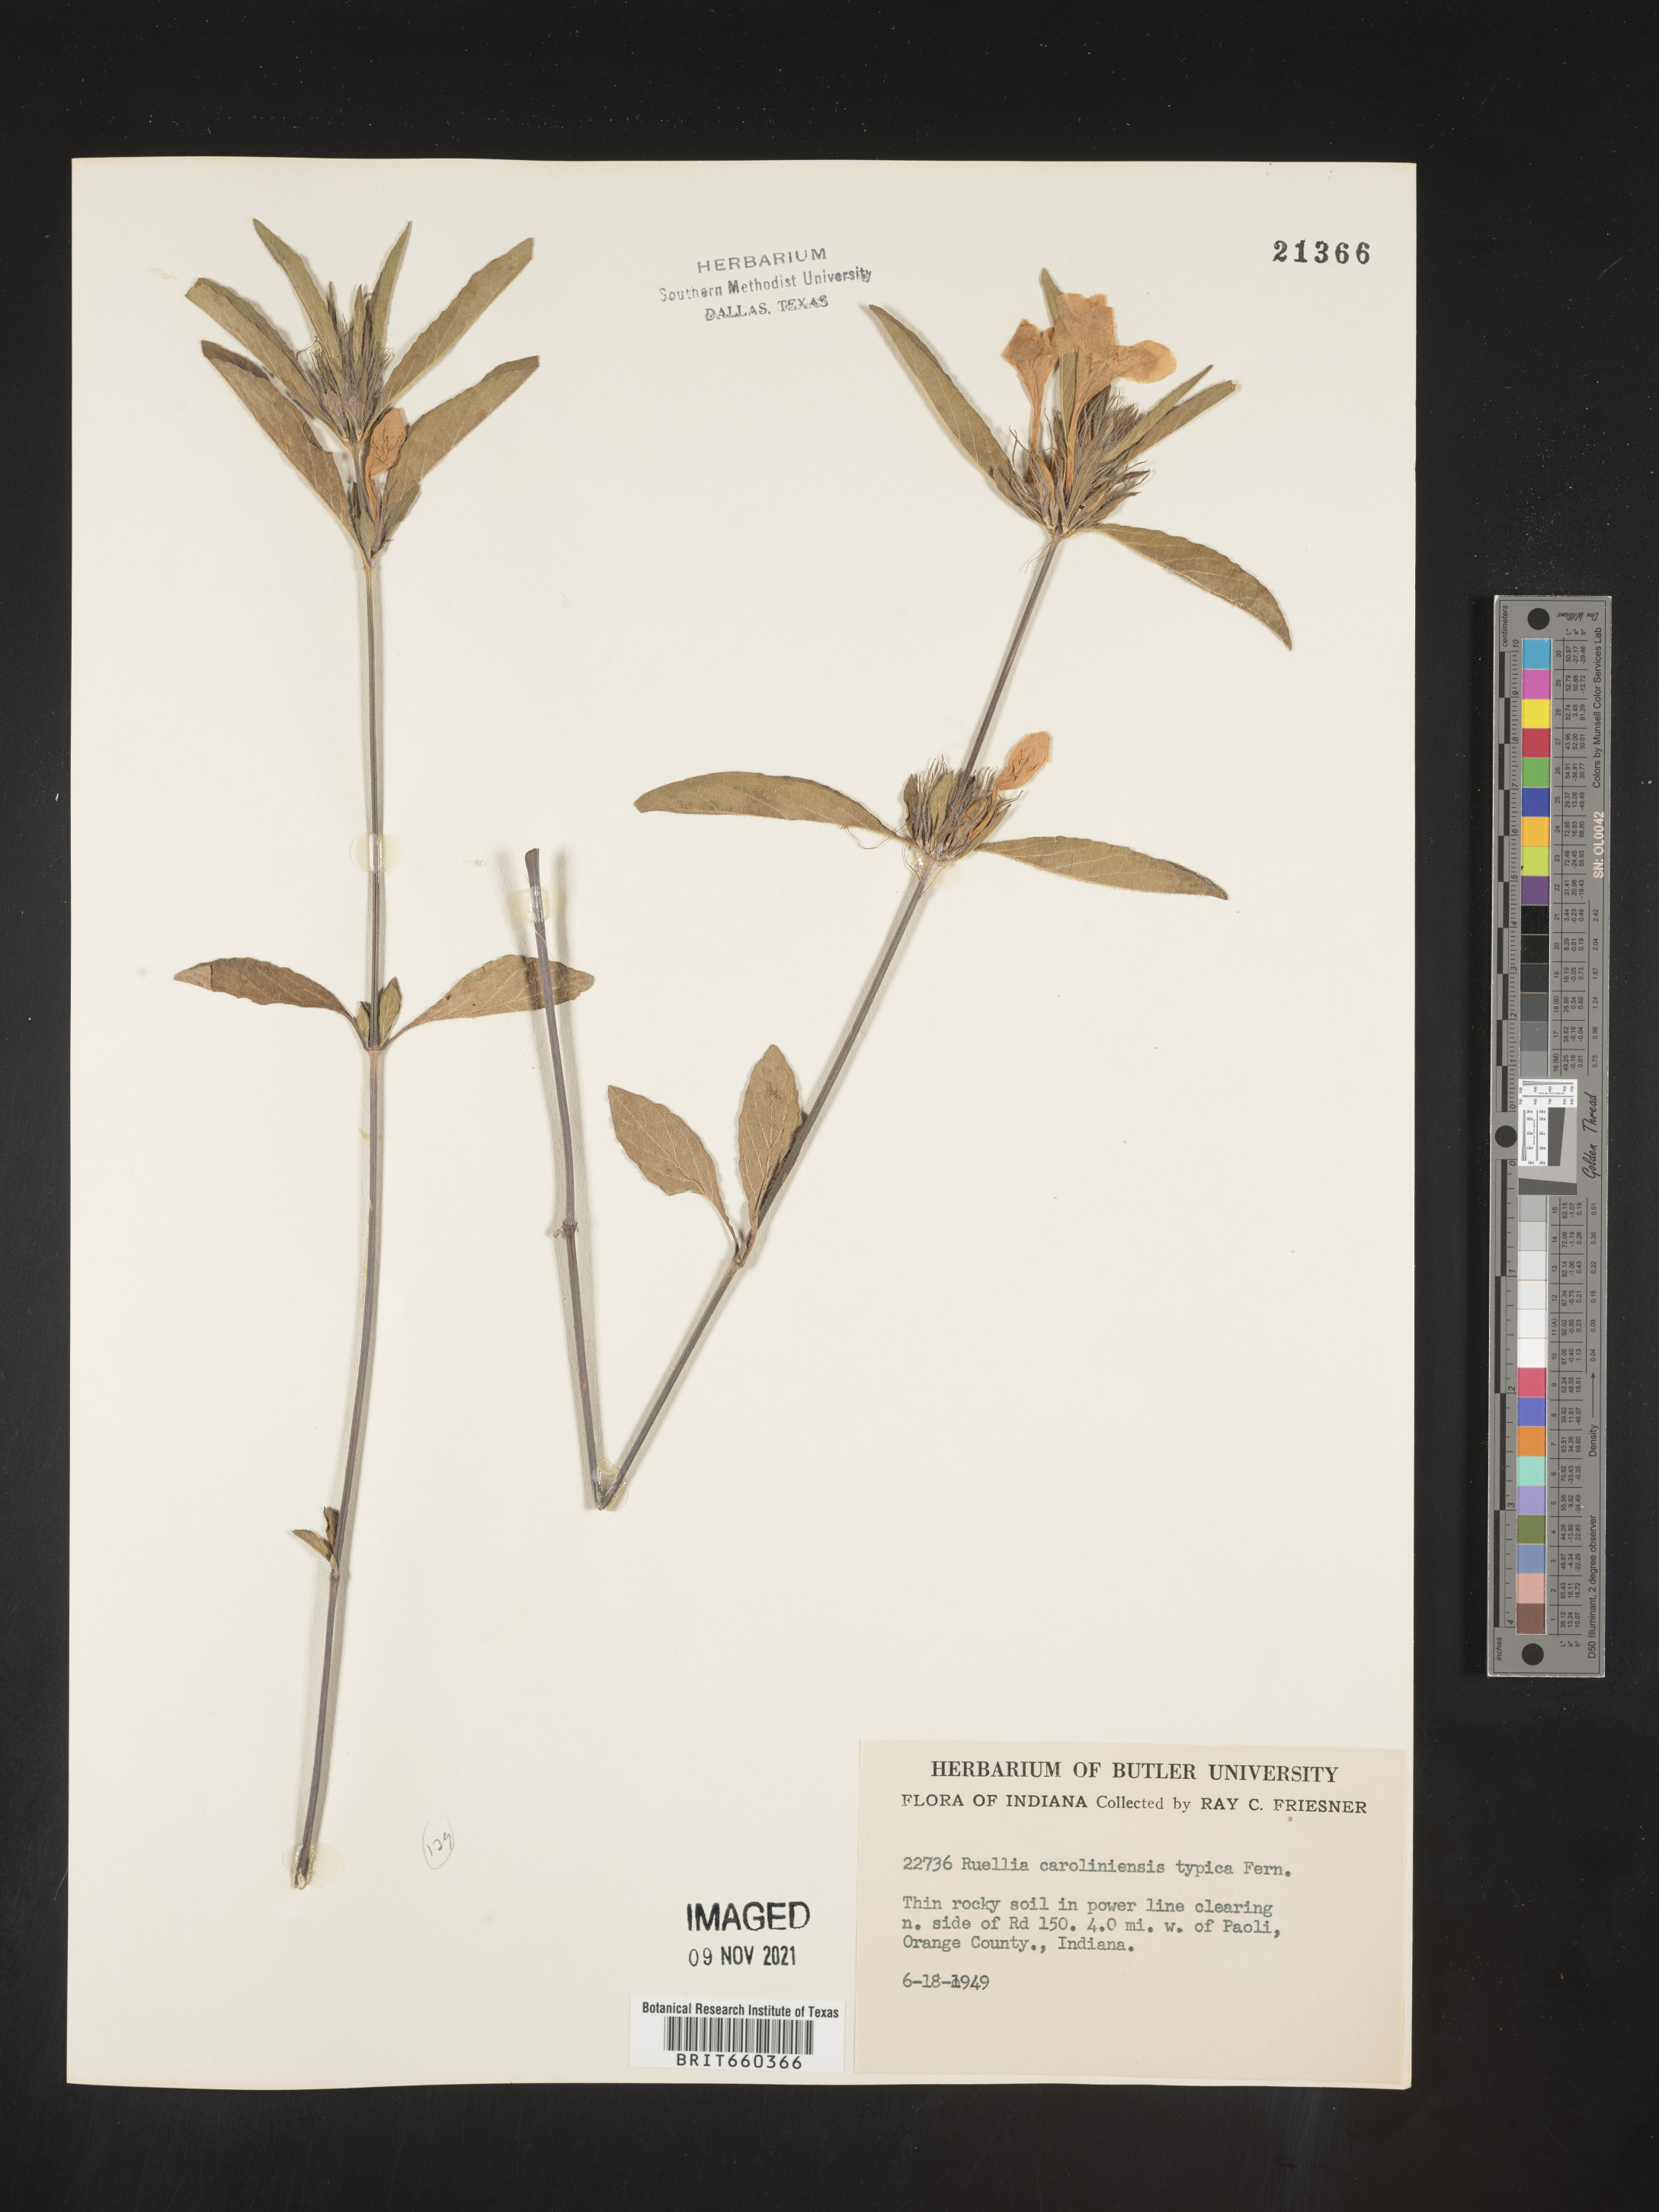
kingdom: Plantae
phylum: Tracheophyta
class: Magnoliopsida
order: Lamiales
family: Acanthaceae
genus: Ruellia
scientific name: Ruellia caroliniensis
